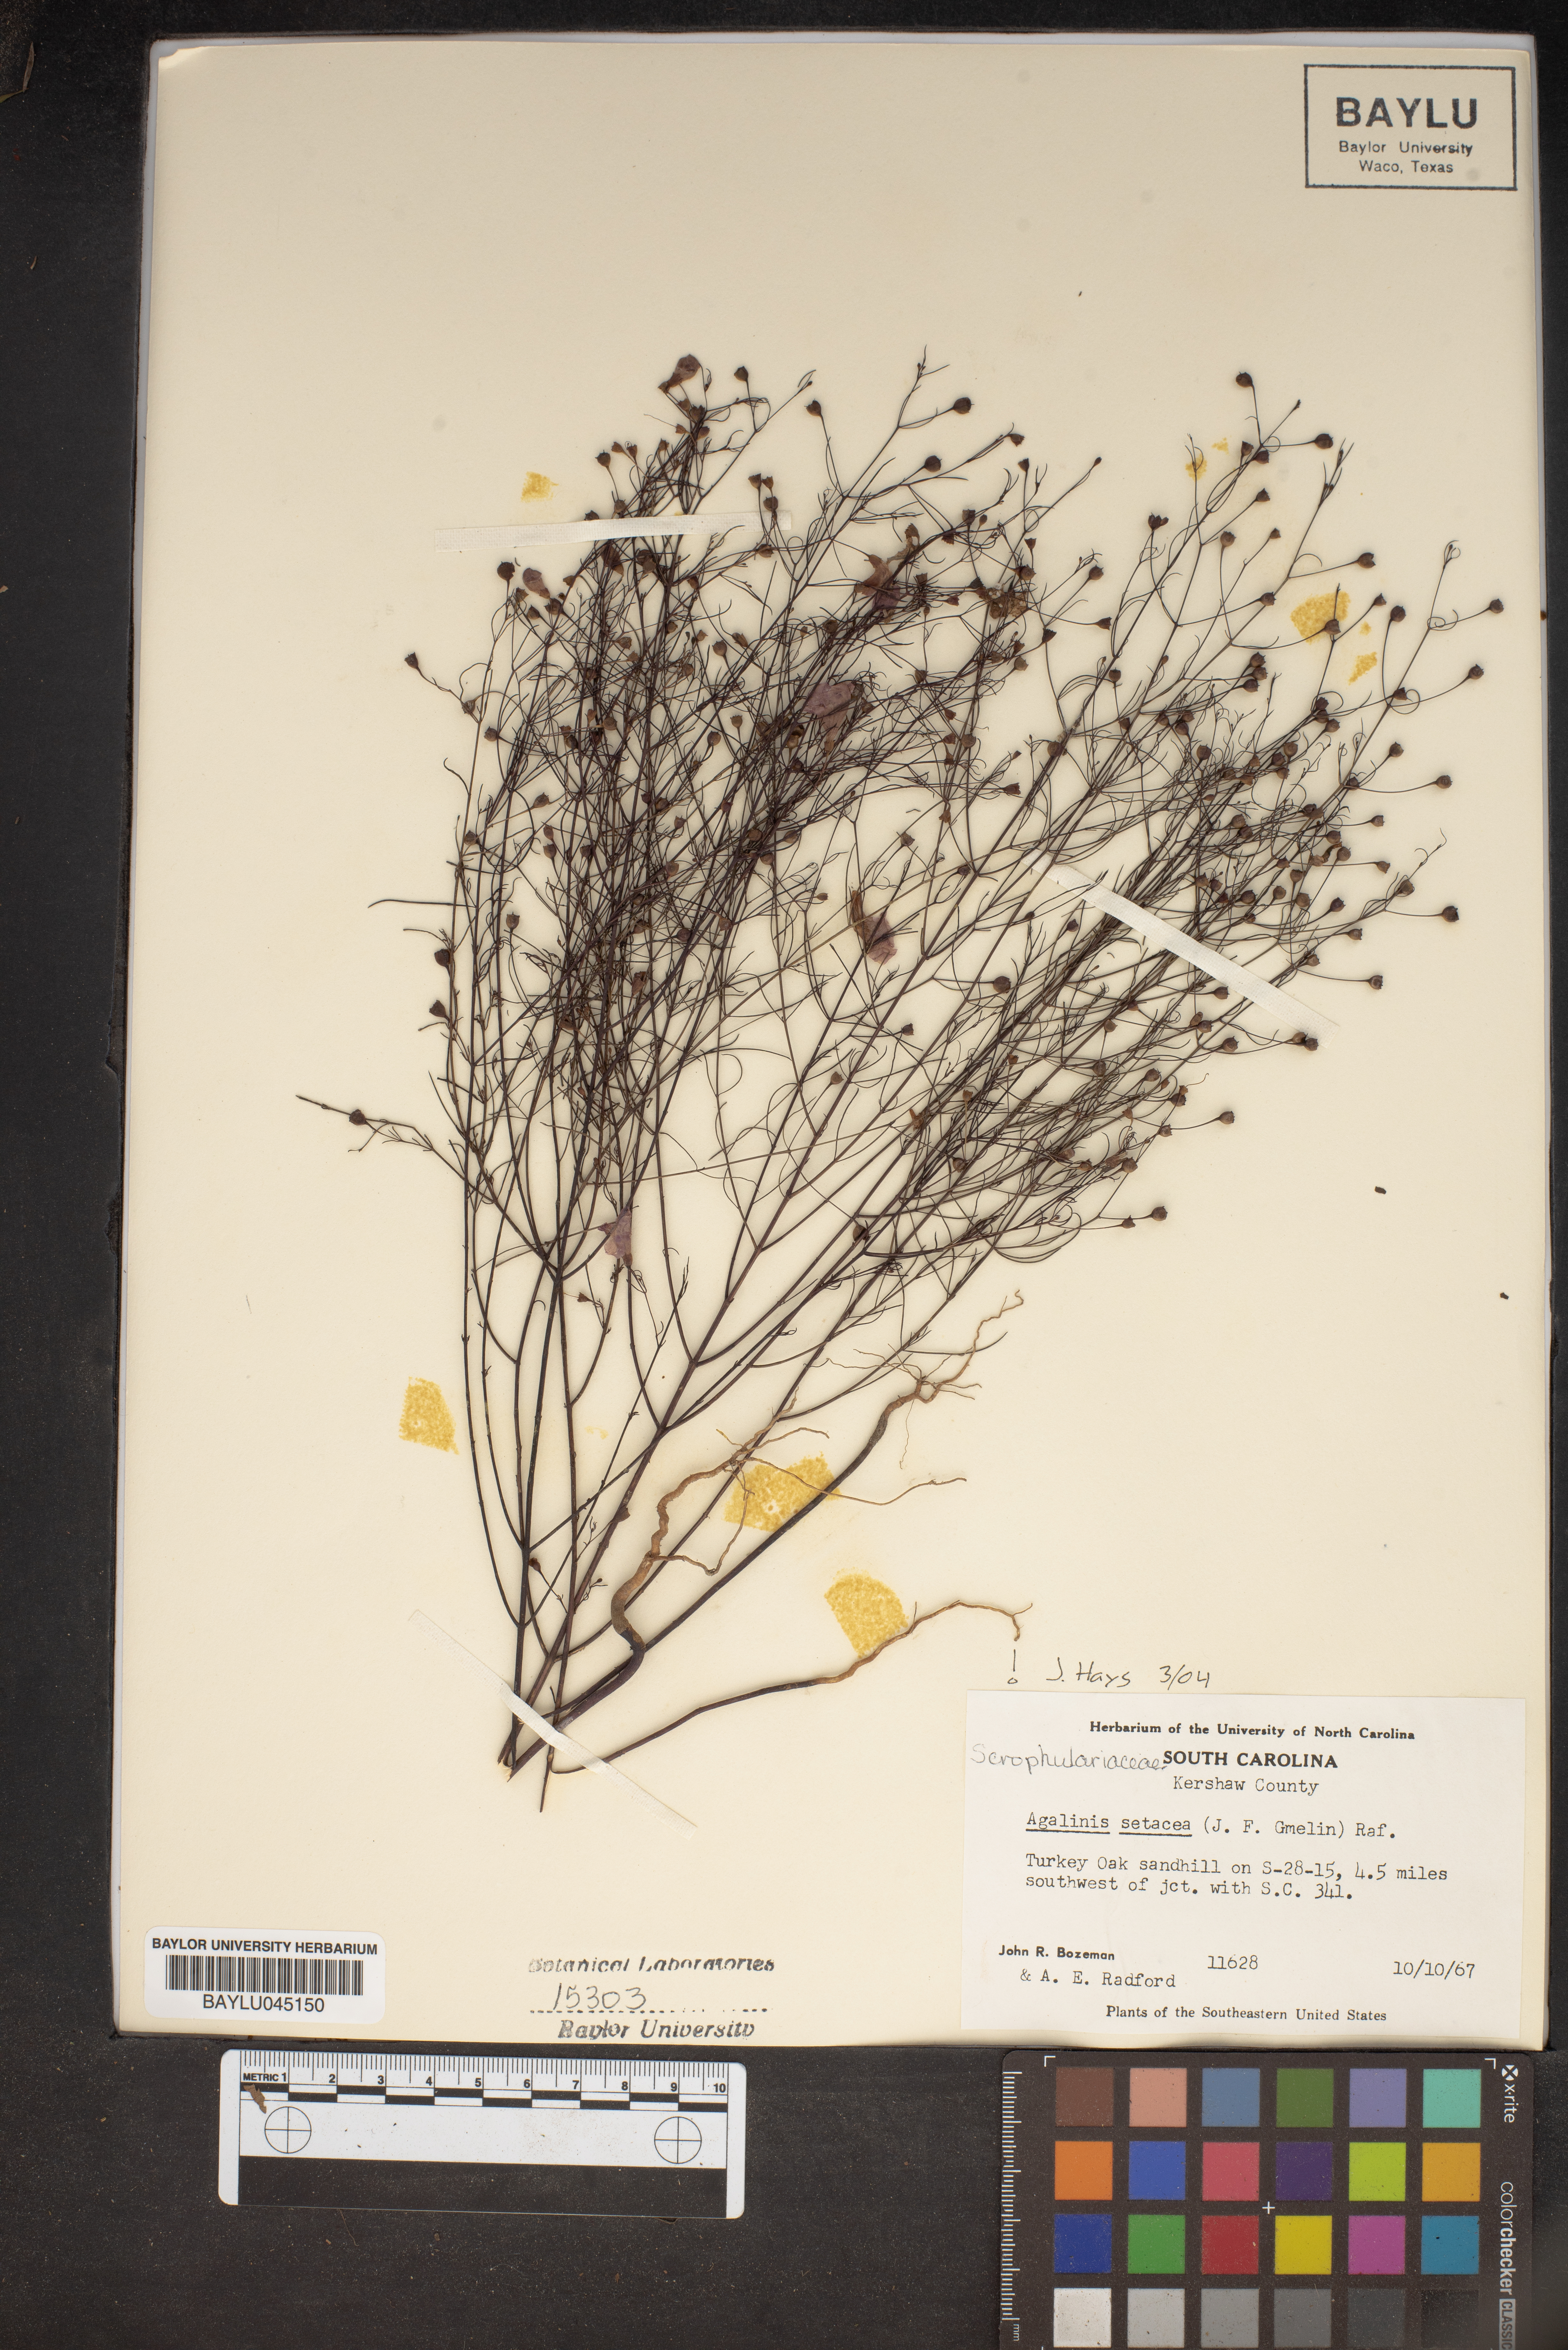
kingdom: Plantae
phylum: Tracheophyta
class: Magnoliopsida
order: Lamiales
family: Orobanchaceae
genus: Agalinis
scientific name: Agalinis setacea
